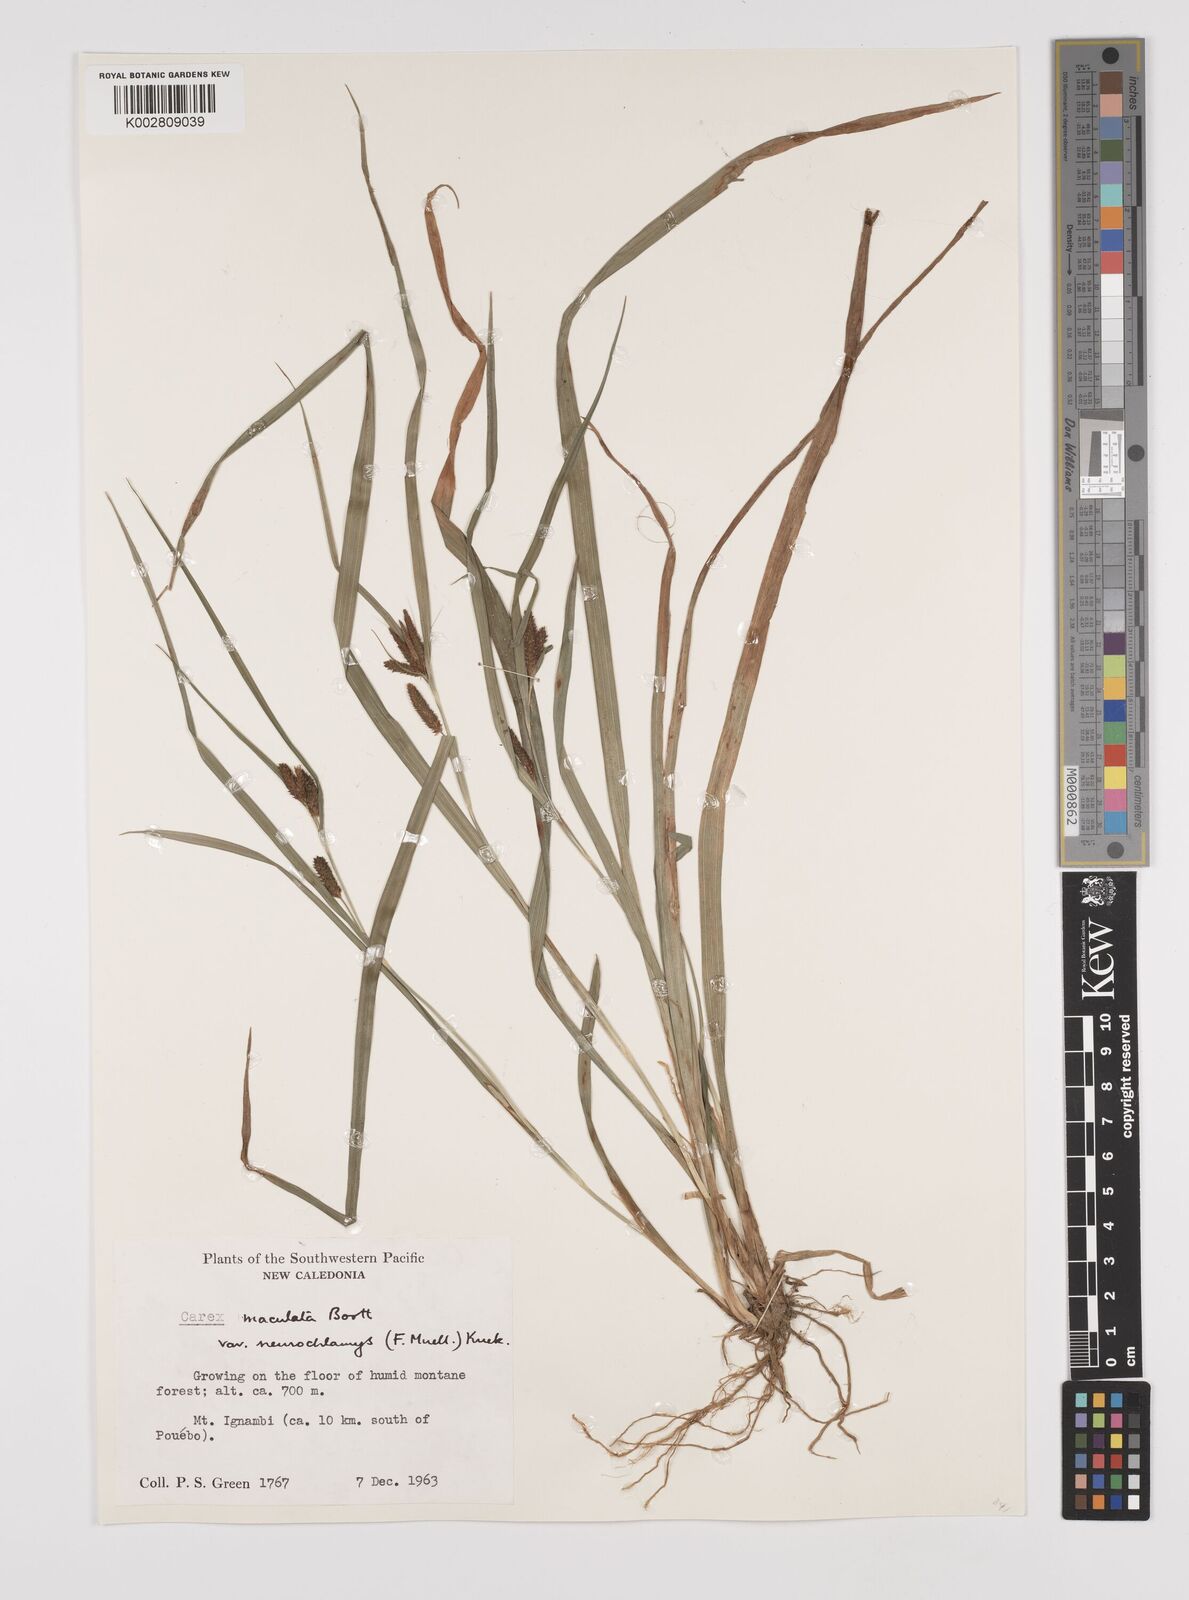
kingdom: Plantae
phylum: Tracheophyta
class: Liliopsida
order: Poales
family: Cyperaceae
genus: Carex
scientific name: Carex maculata
